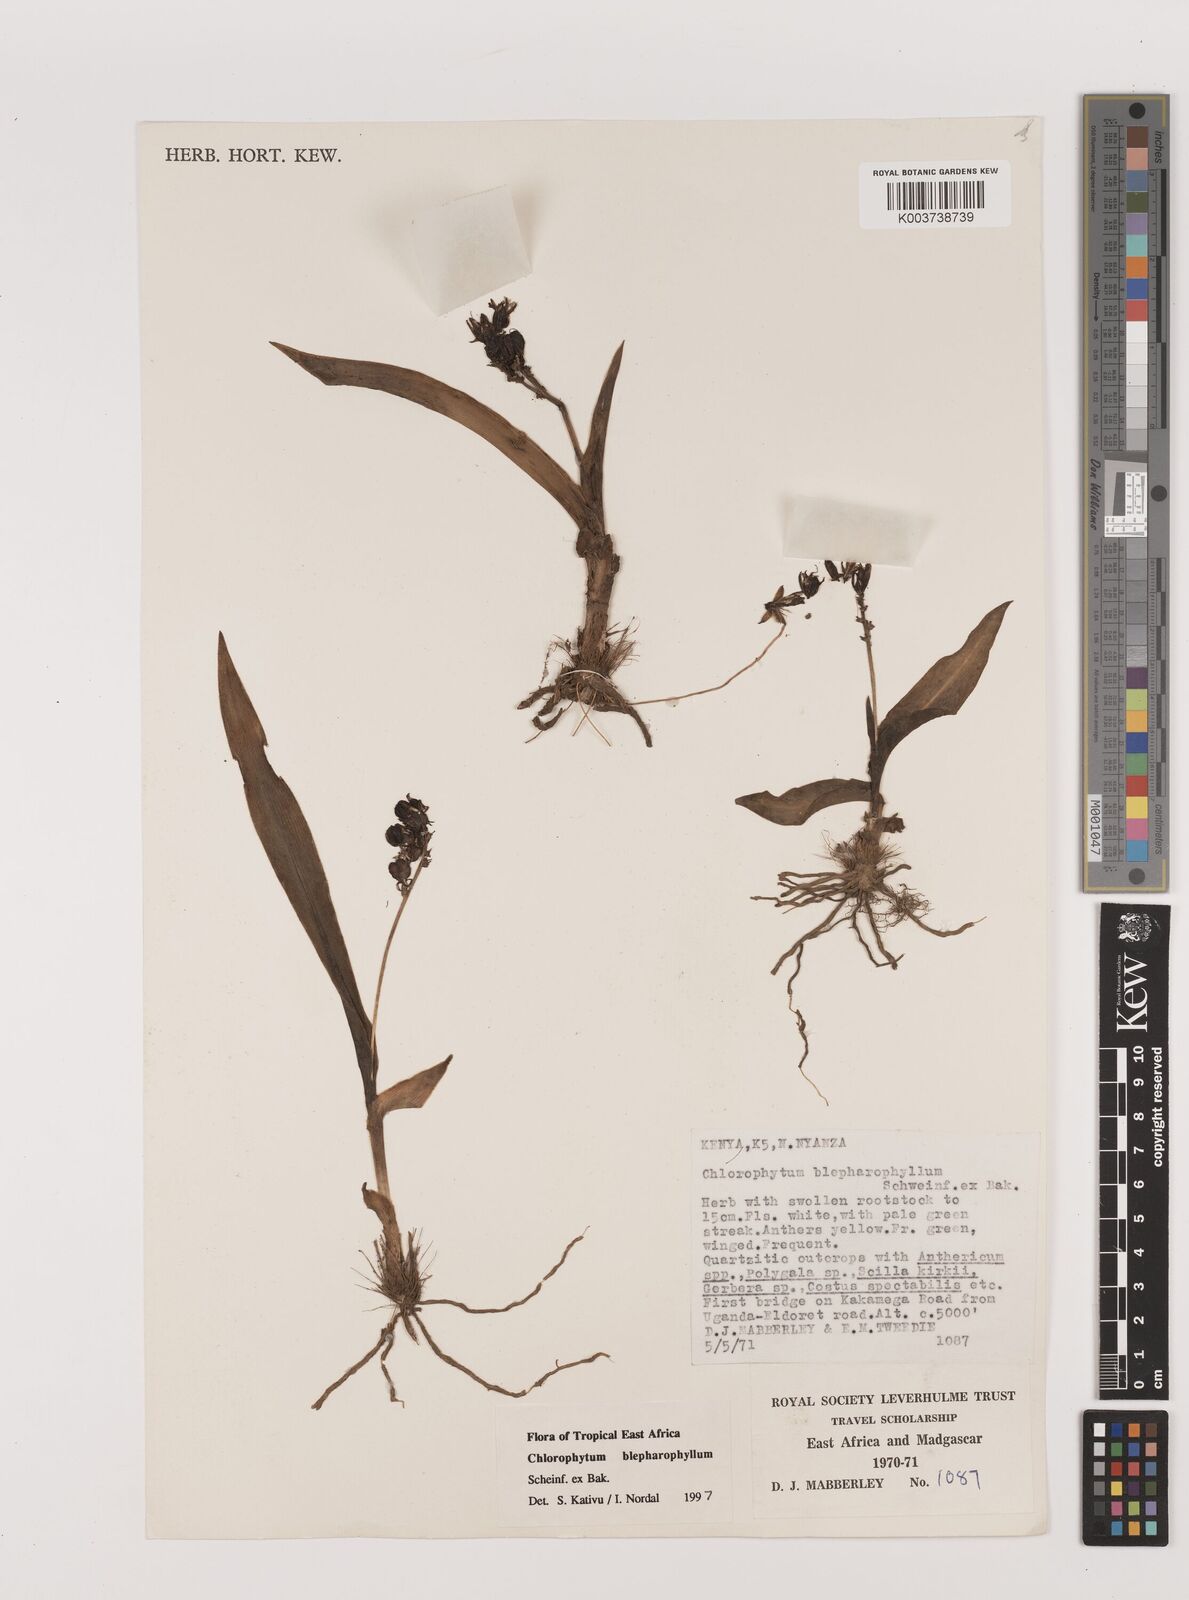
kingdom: Plantae
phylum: Tracheophyta
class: Liliopsida
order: Asparagales
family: Asparagaceae
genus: Chlorophytum
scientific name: Chlorophytum blepharophyllum
